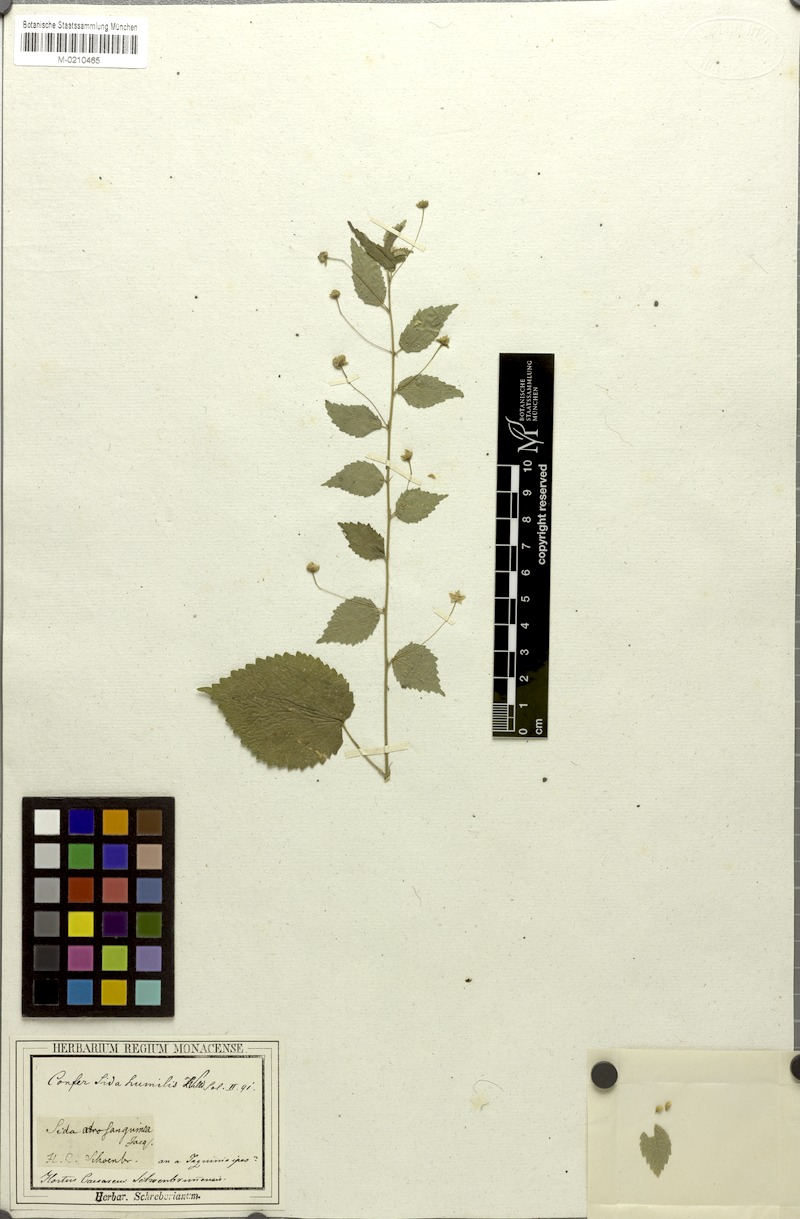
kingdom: Plantae
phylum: Tracheophyta
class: Magnoliopsida
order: Malvales
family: Malvaceae
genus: Sidastrum
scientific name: Sidastrum paniculatum
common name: Panicled sandmallow
